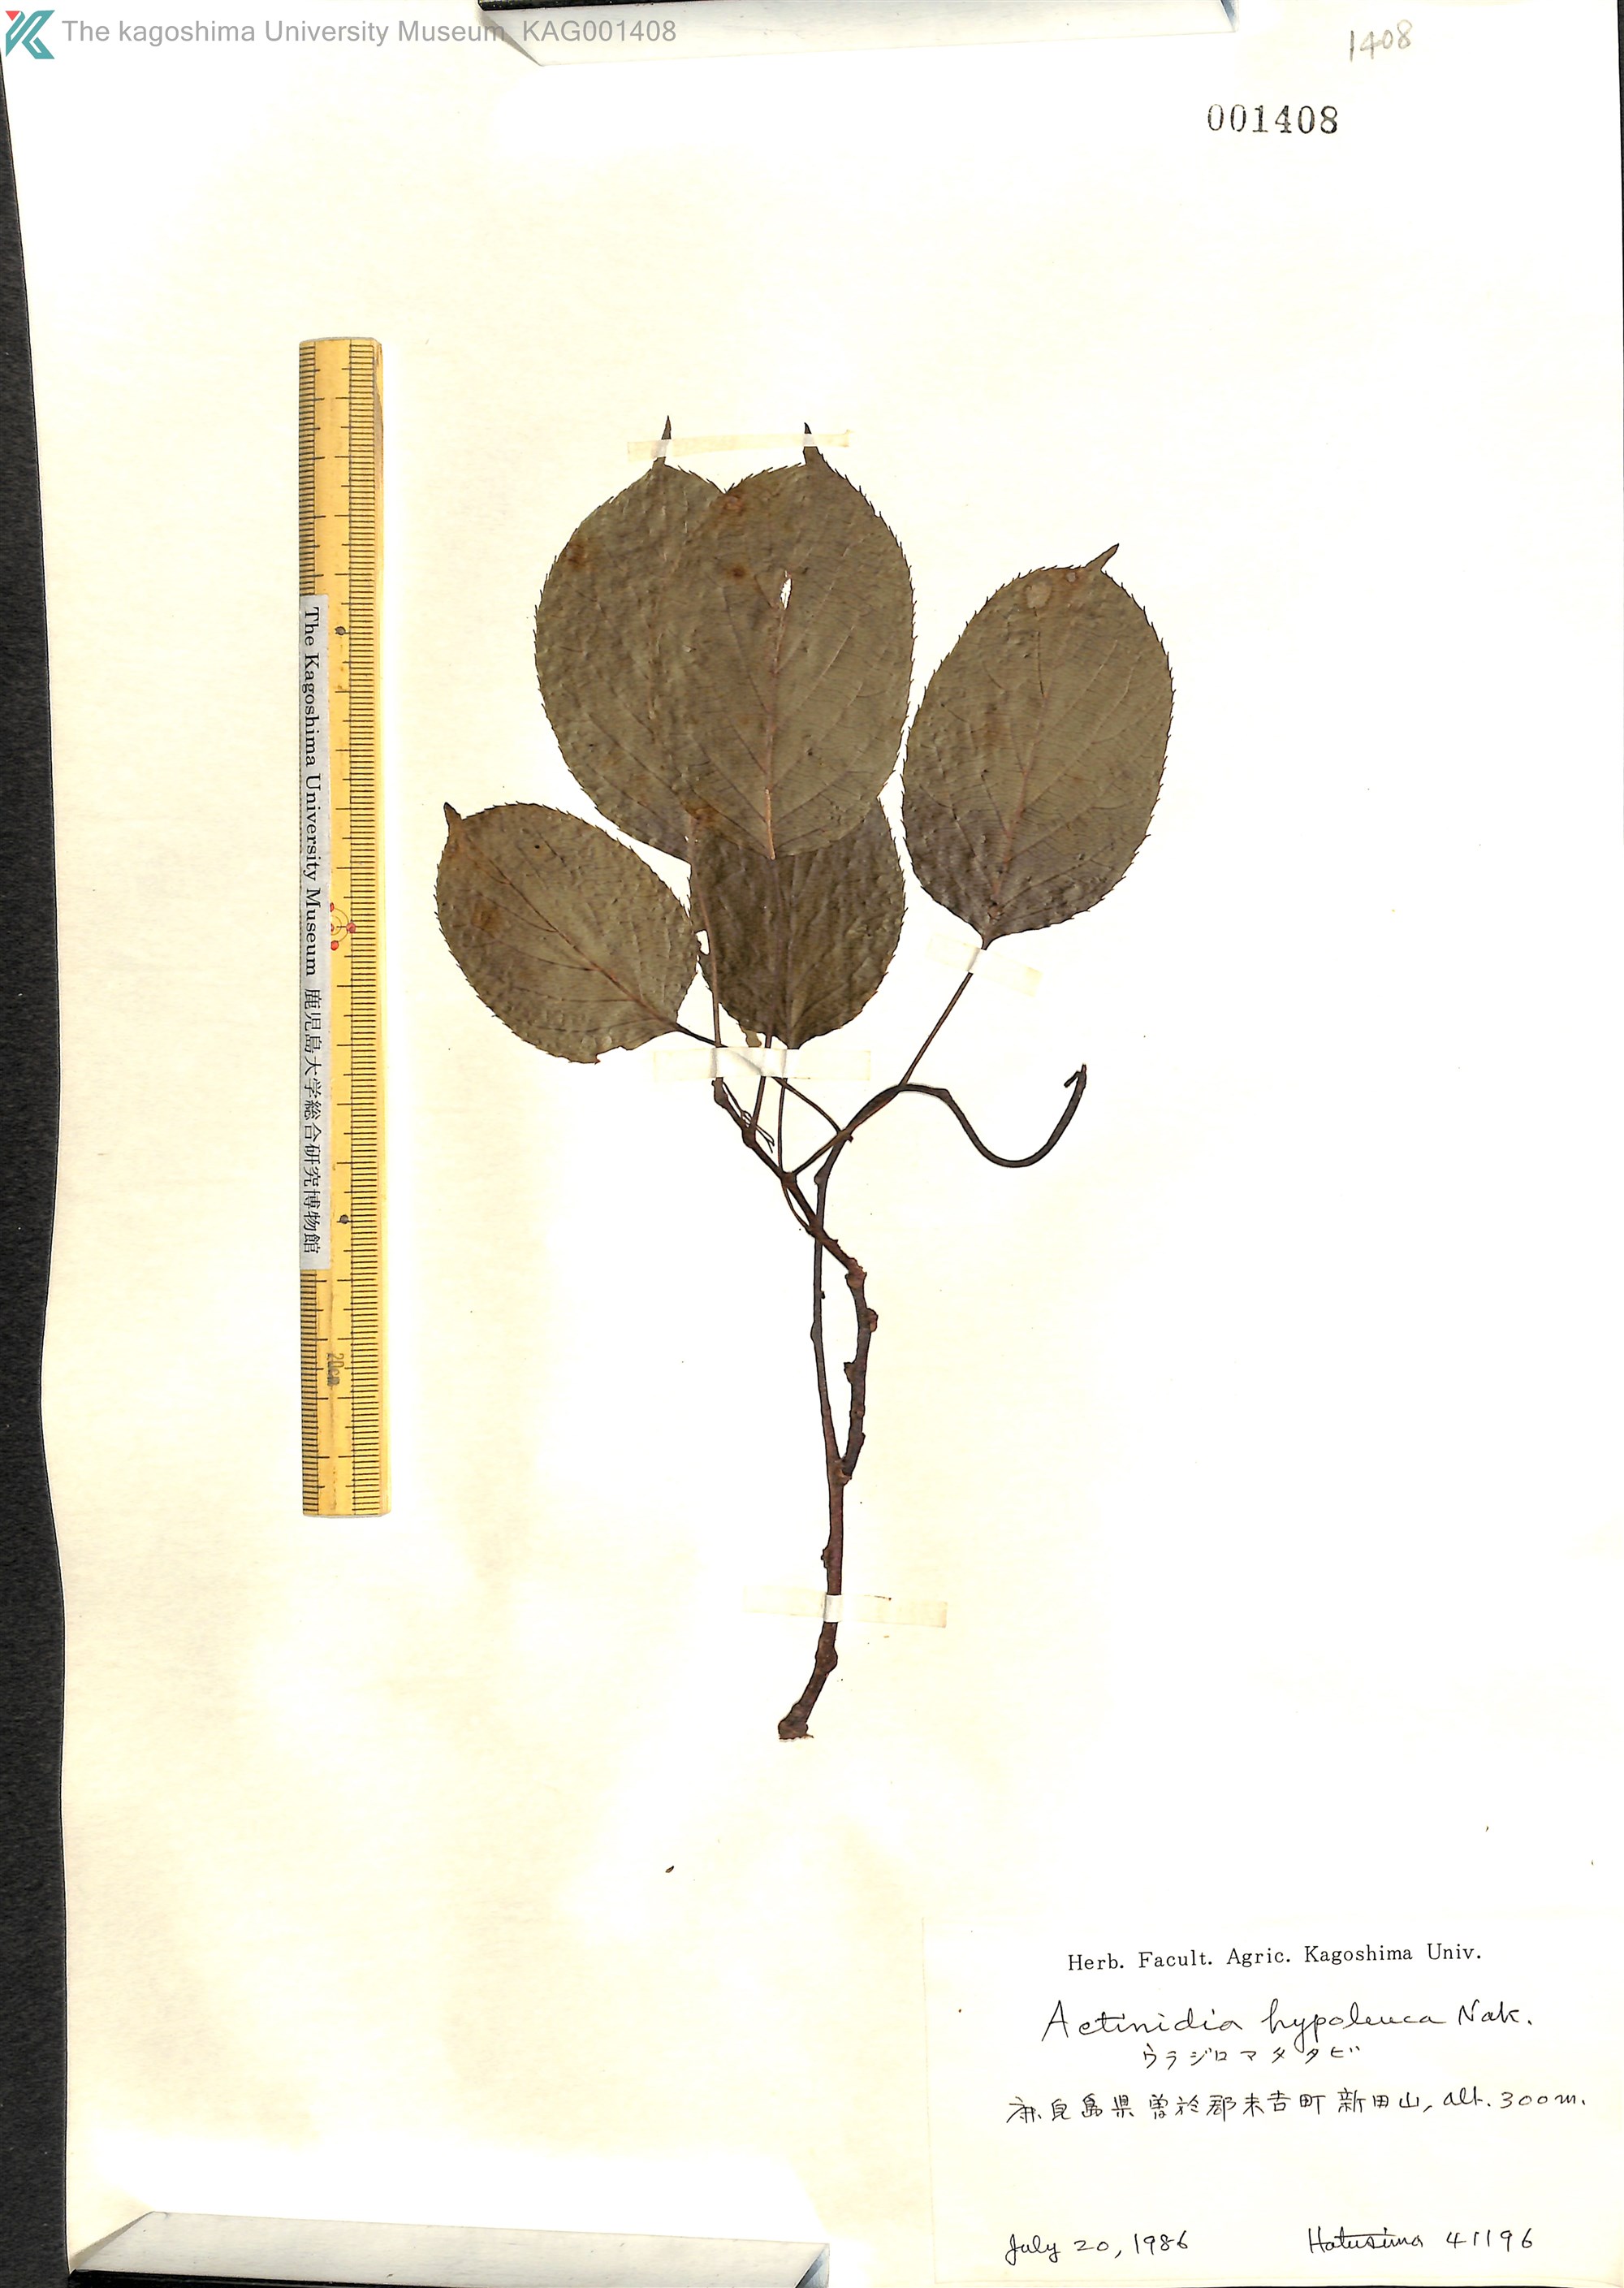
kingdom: Plantae
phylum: Tracheophyta
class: Magnoliopsida
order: Ericales
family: Actinidiaceae
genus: Actinidia
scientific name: Actinidia arguta
